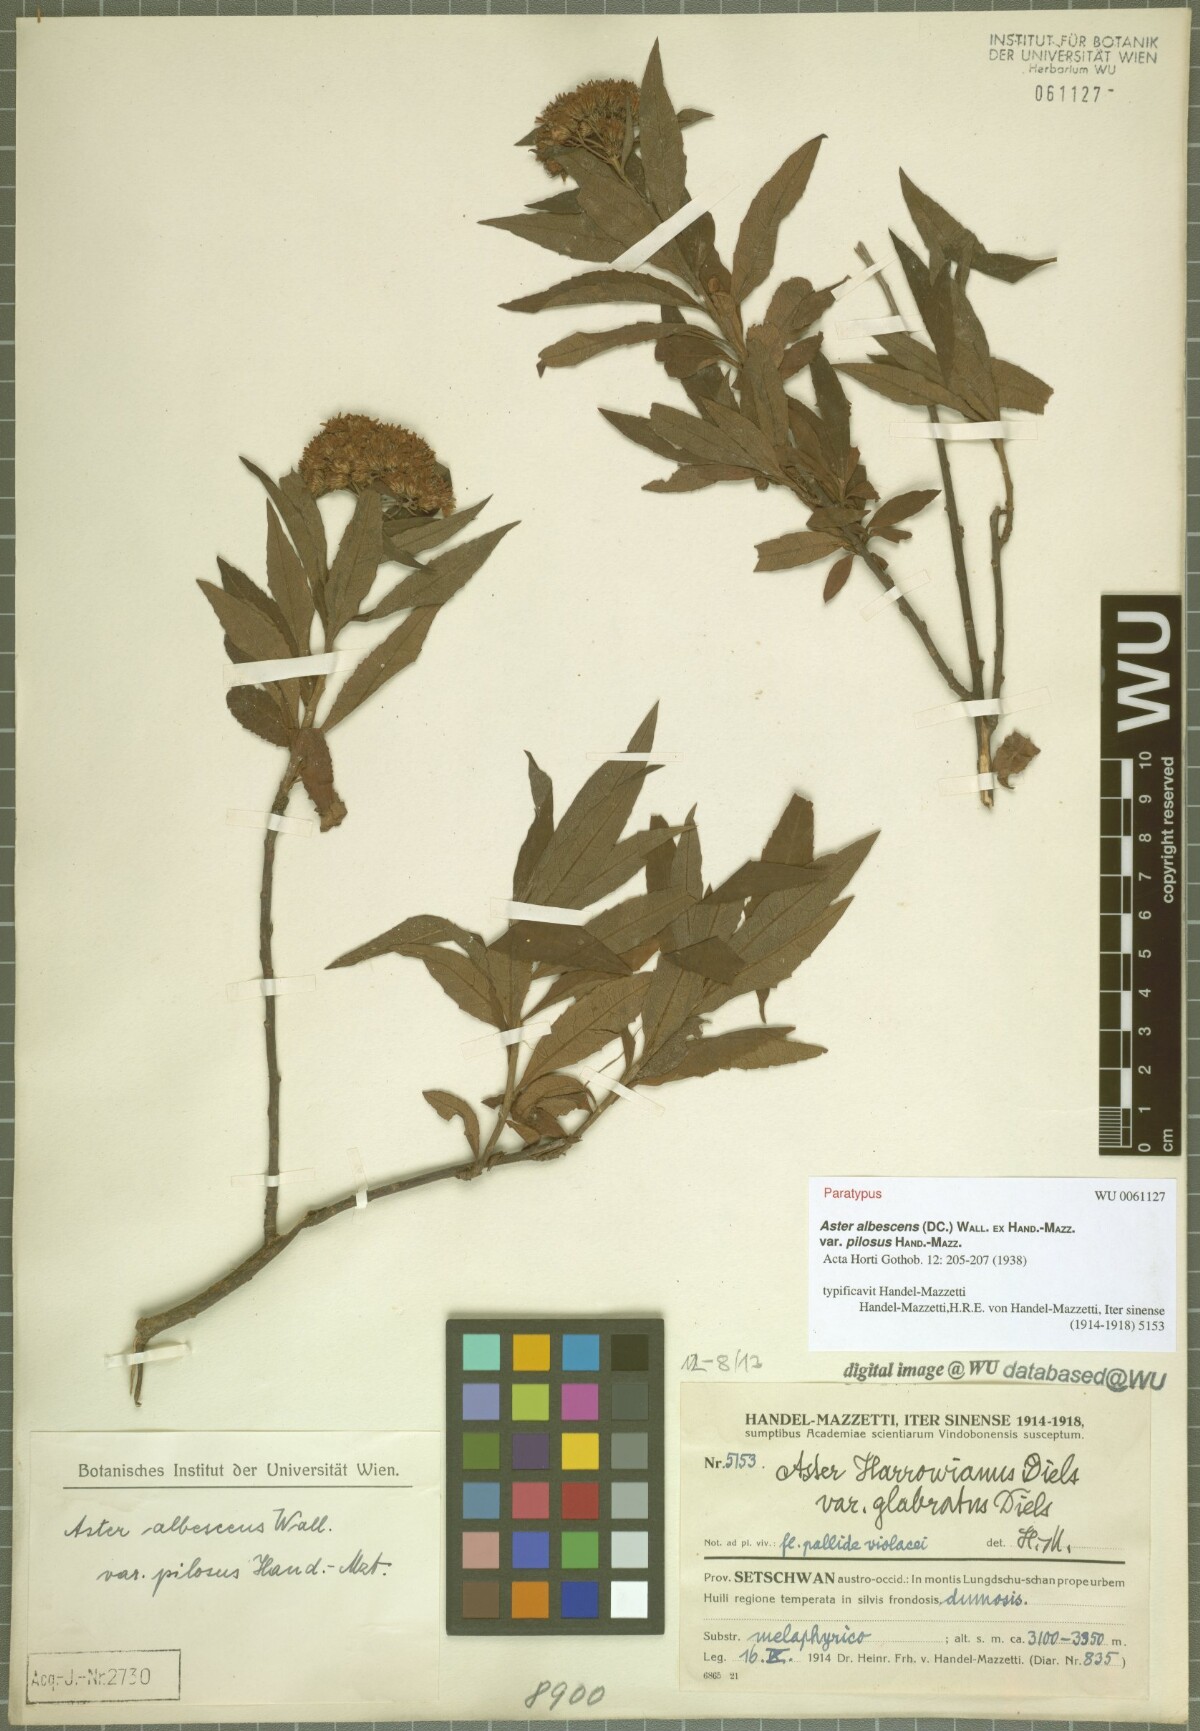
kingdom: Plantae
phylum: Tracheophyta
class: Magnoliopsida
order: Asterales
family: Asteraceae
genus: Sinosidus
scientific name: Sinosidus albescens
